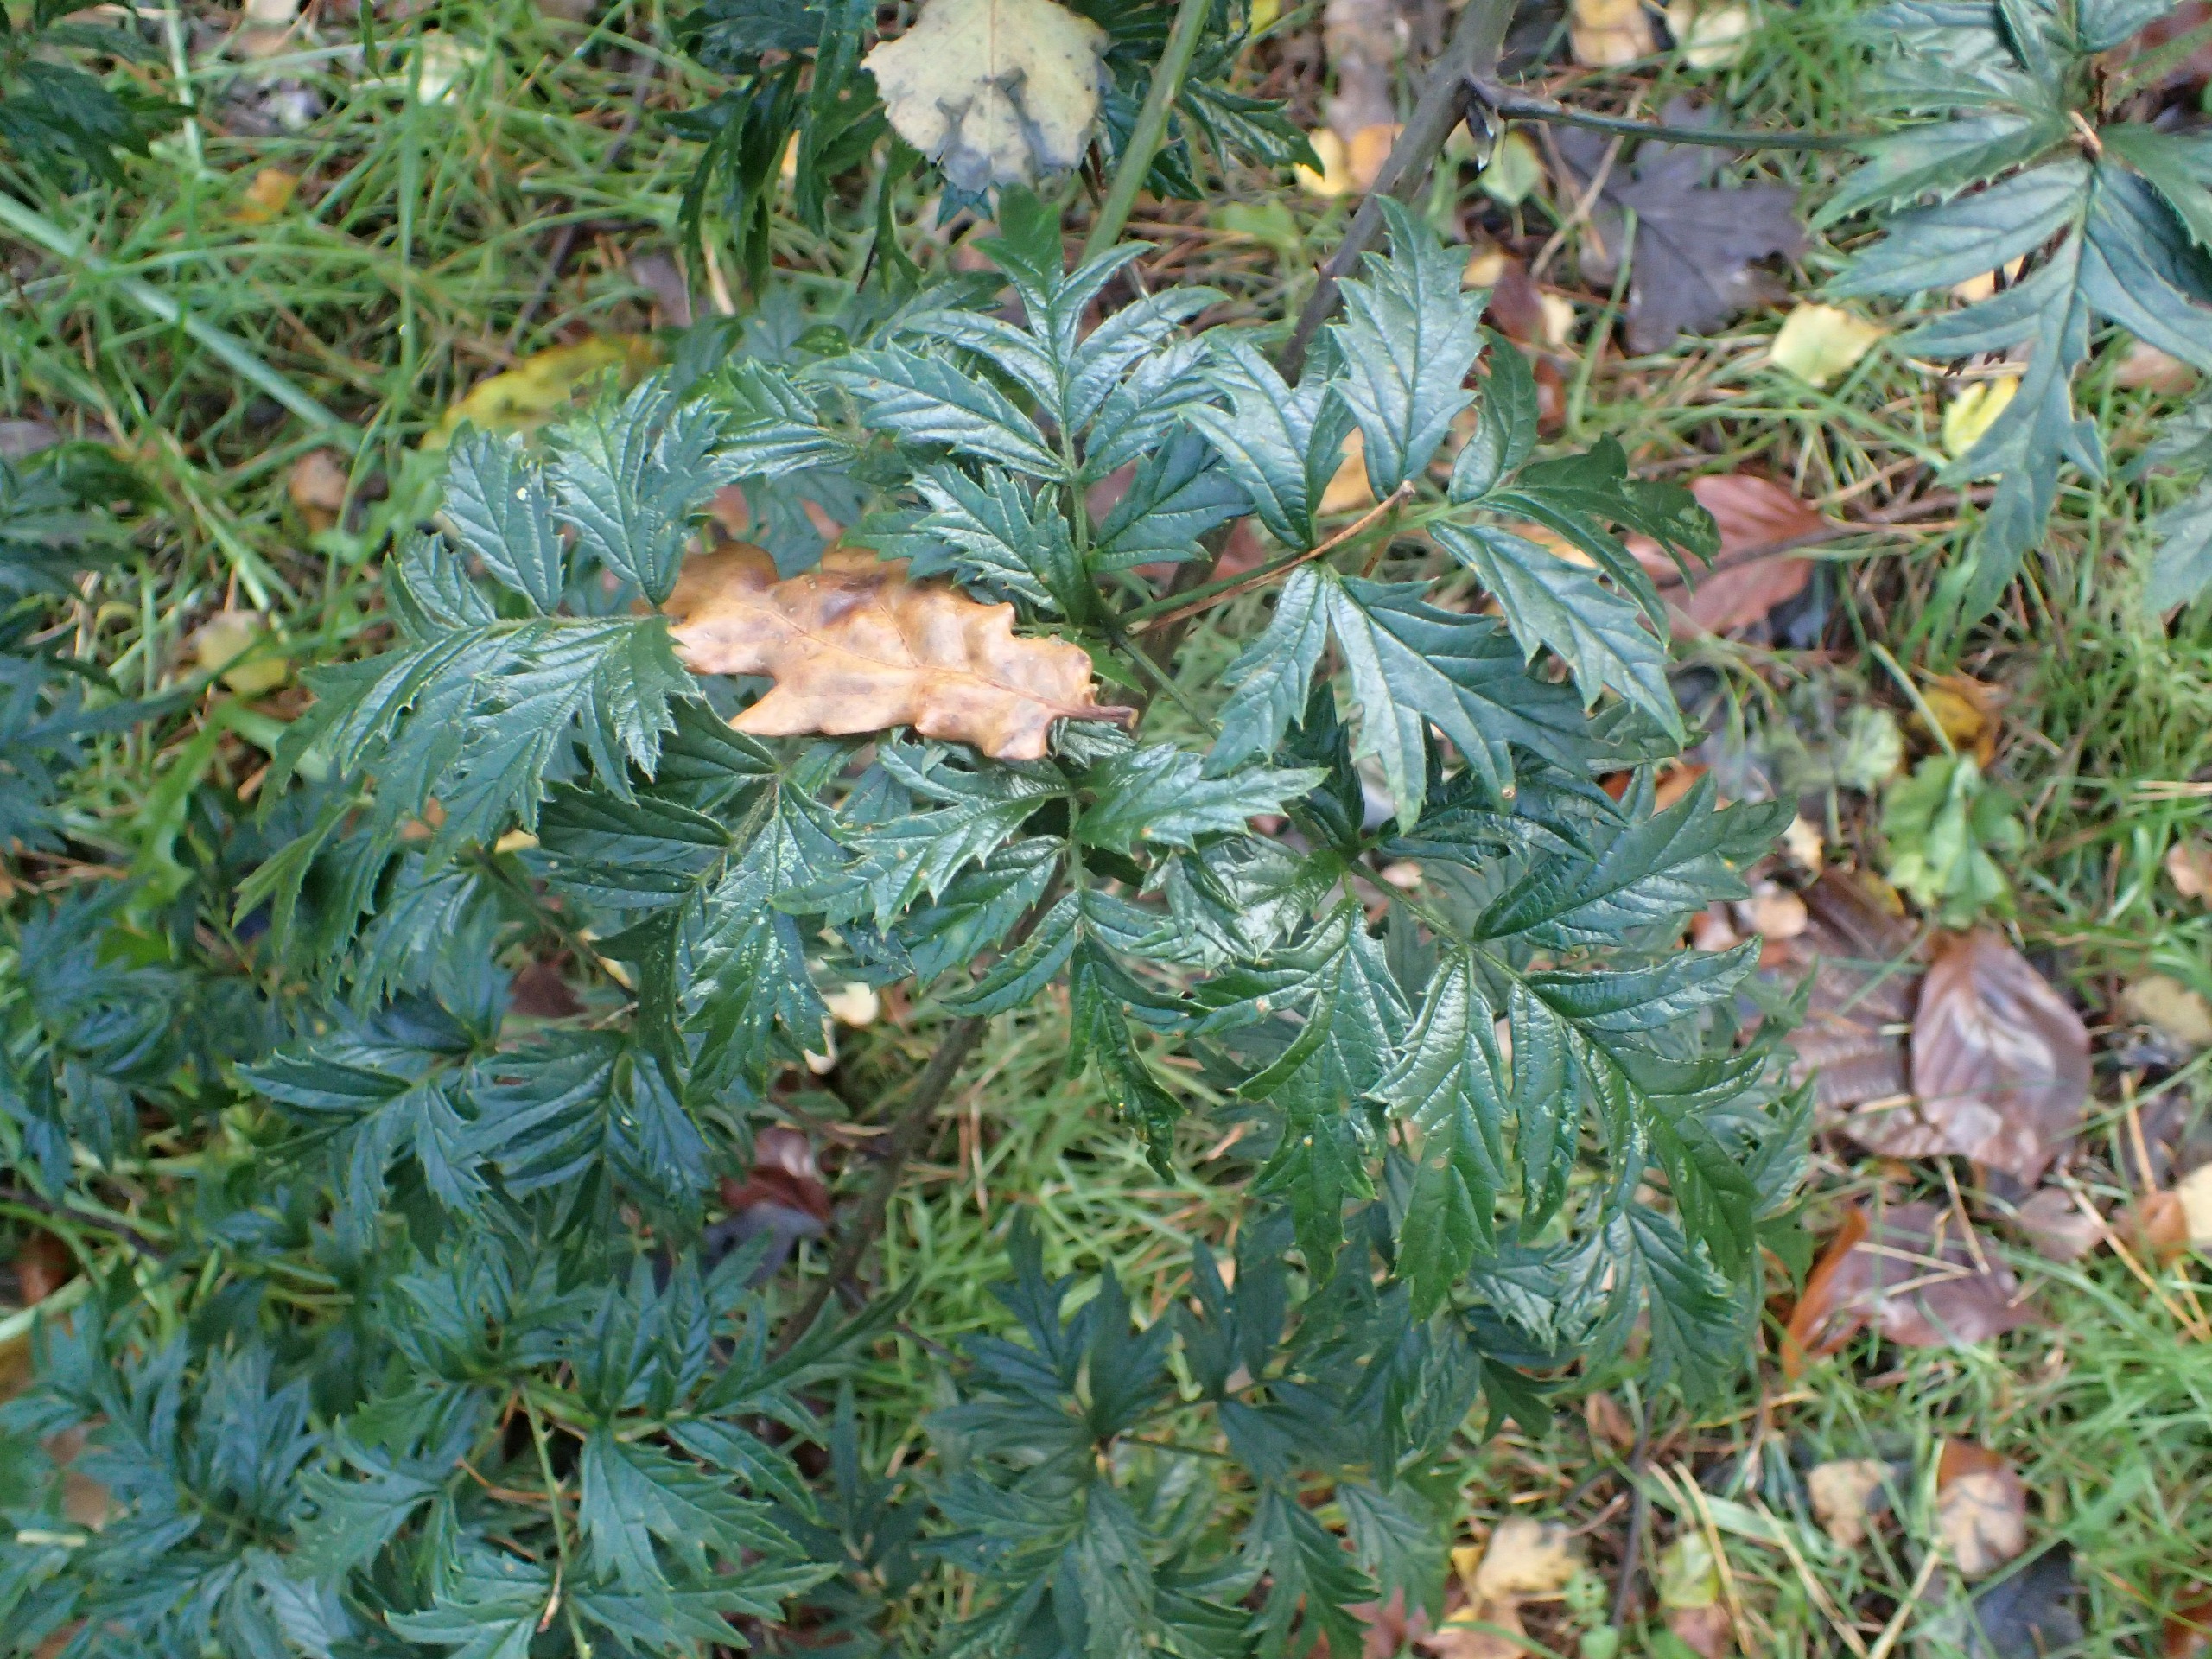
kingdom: Plantae
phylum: Tracheophyta
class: Magnoliopsida
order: Rosales
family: Rosaceae
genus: Rubus
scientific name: Rubus laciniatus
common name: Fliget brombær
